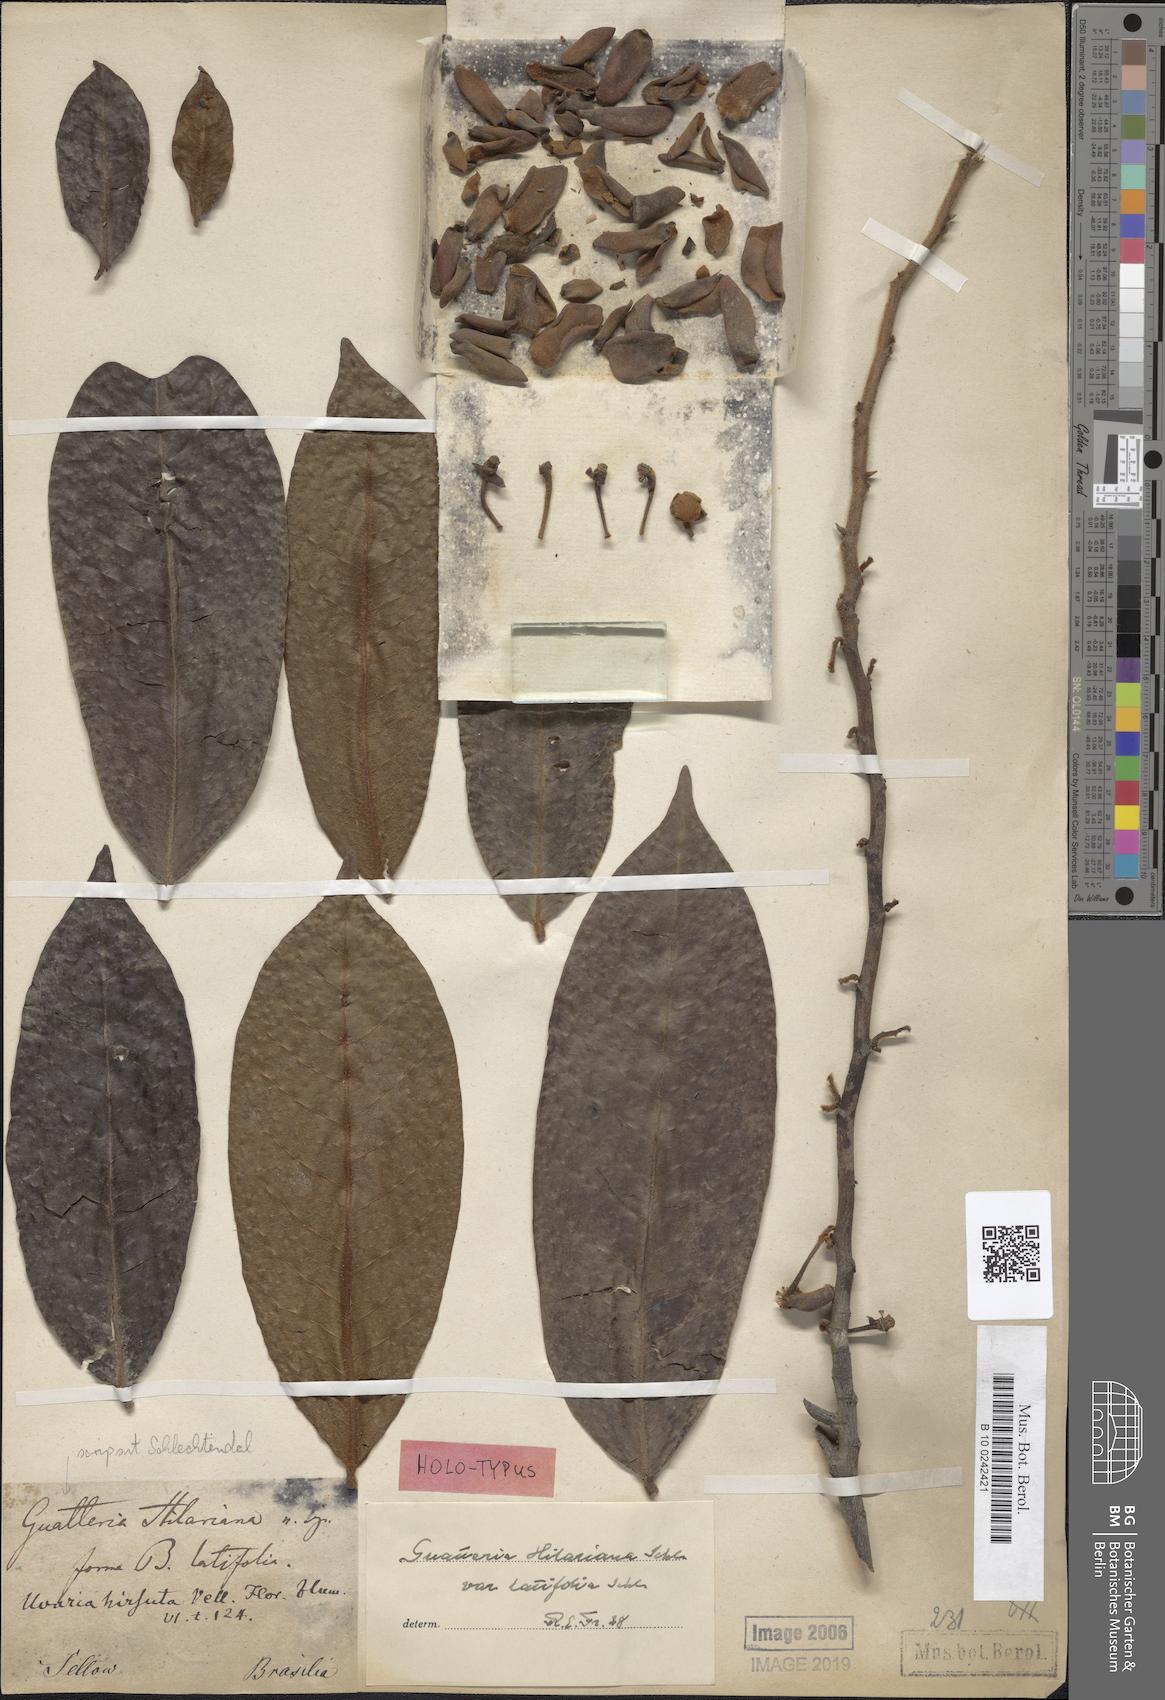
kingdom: Plantae
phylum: Tracheophyta
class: Magnoliopsida
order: Magnoliales
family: Annonaceae
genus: Guatteria
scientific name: Guatteria australis
